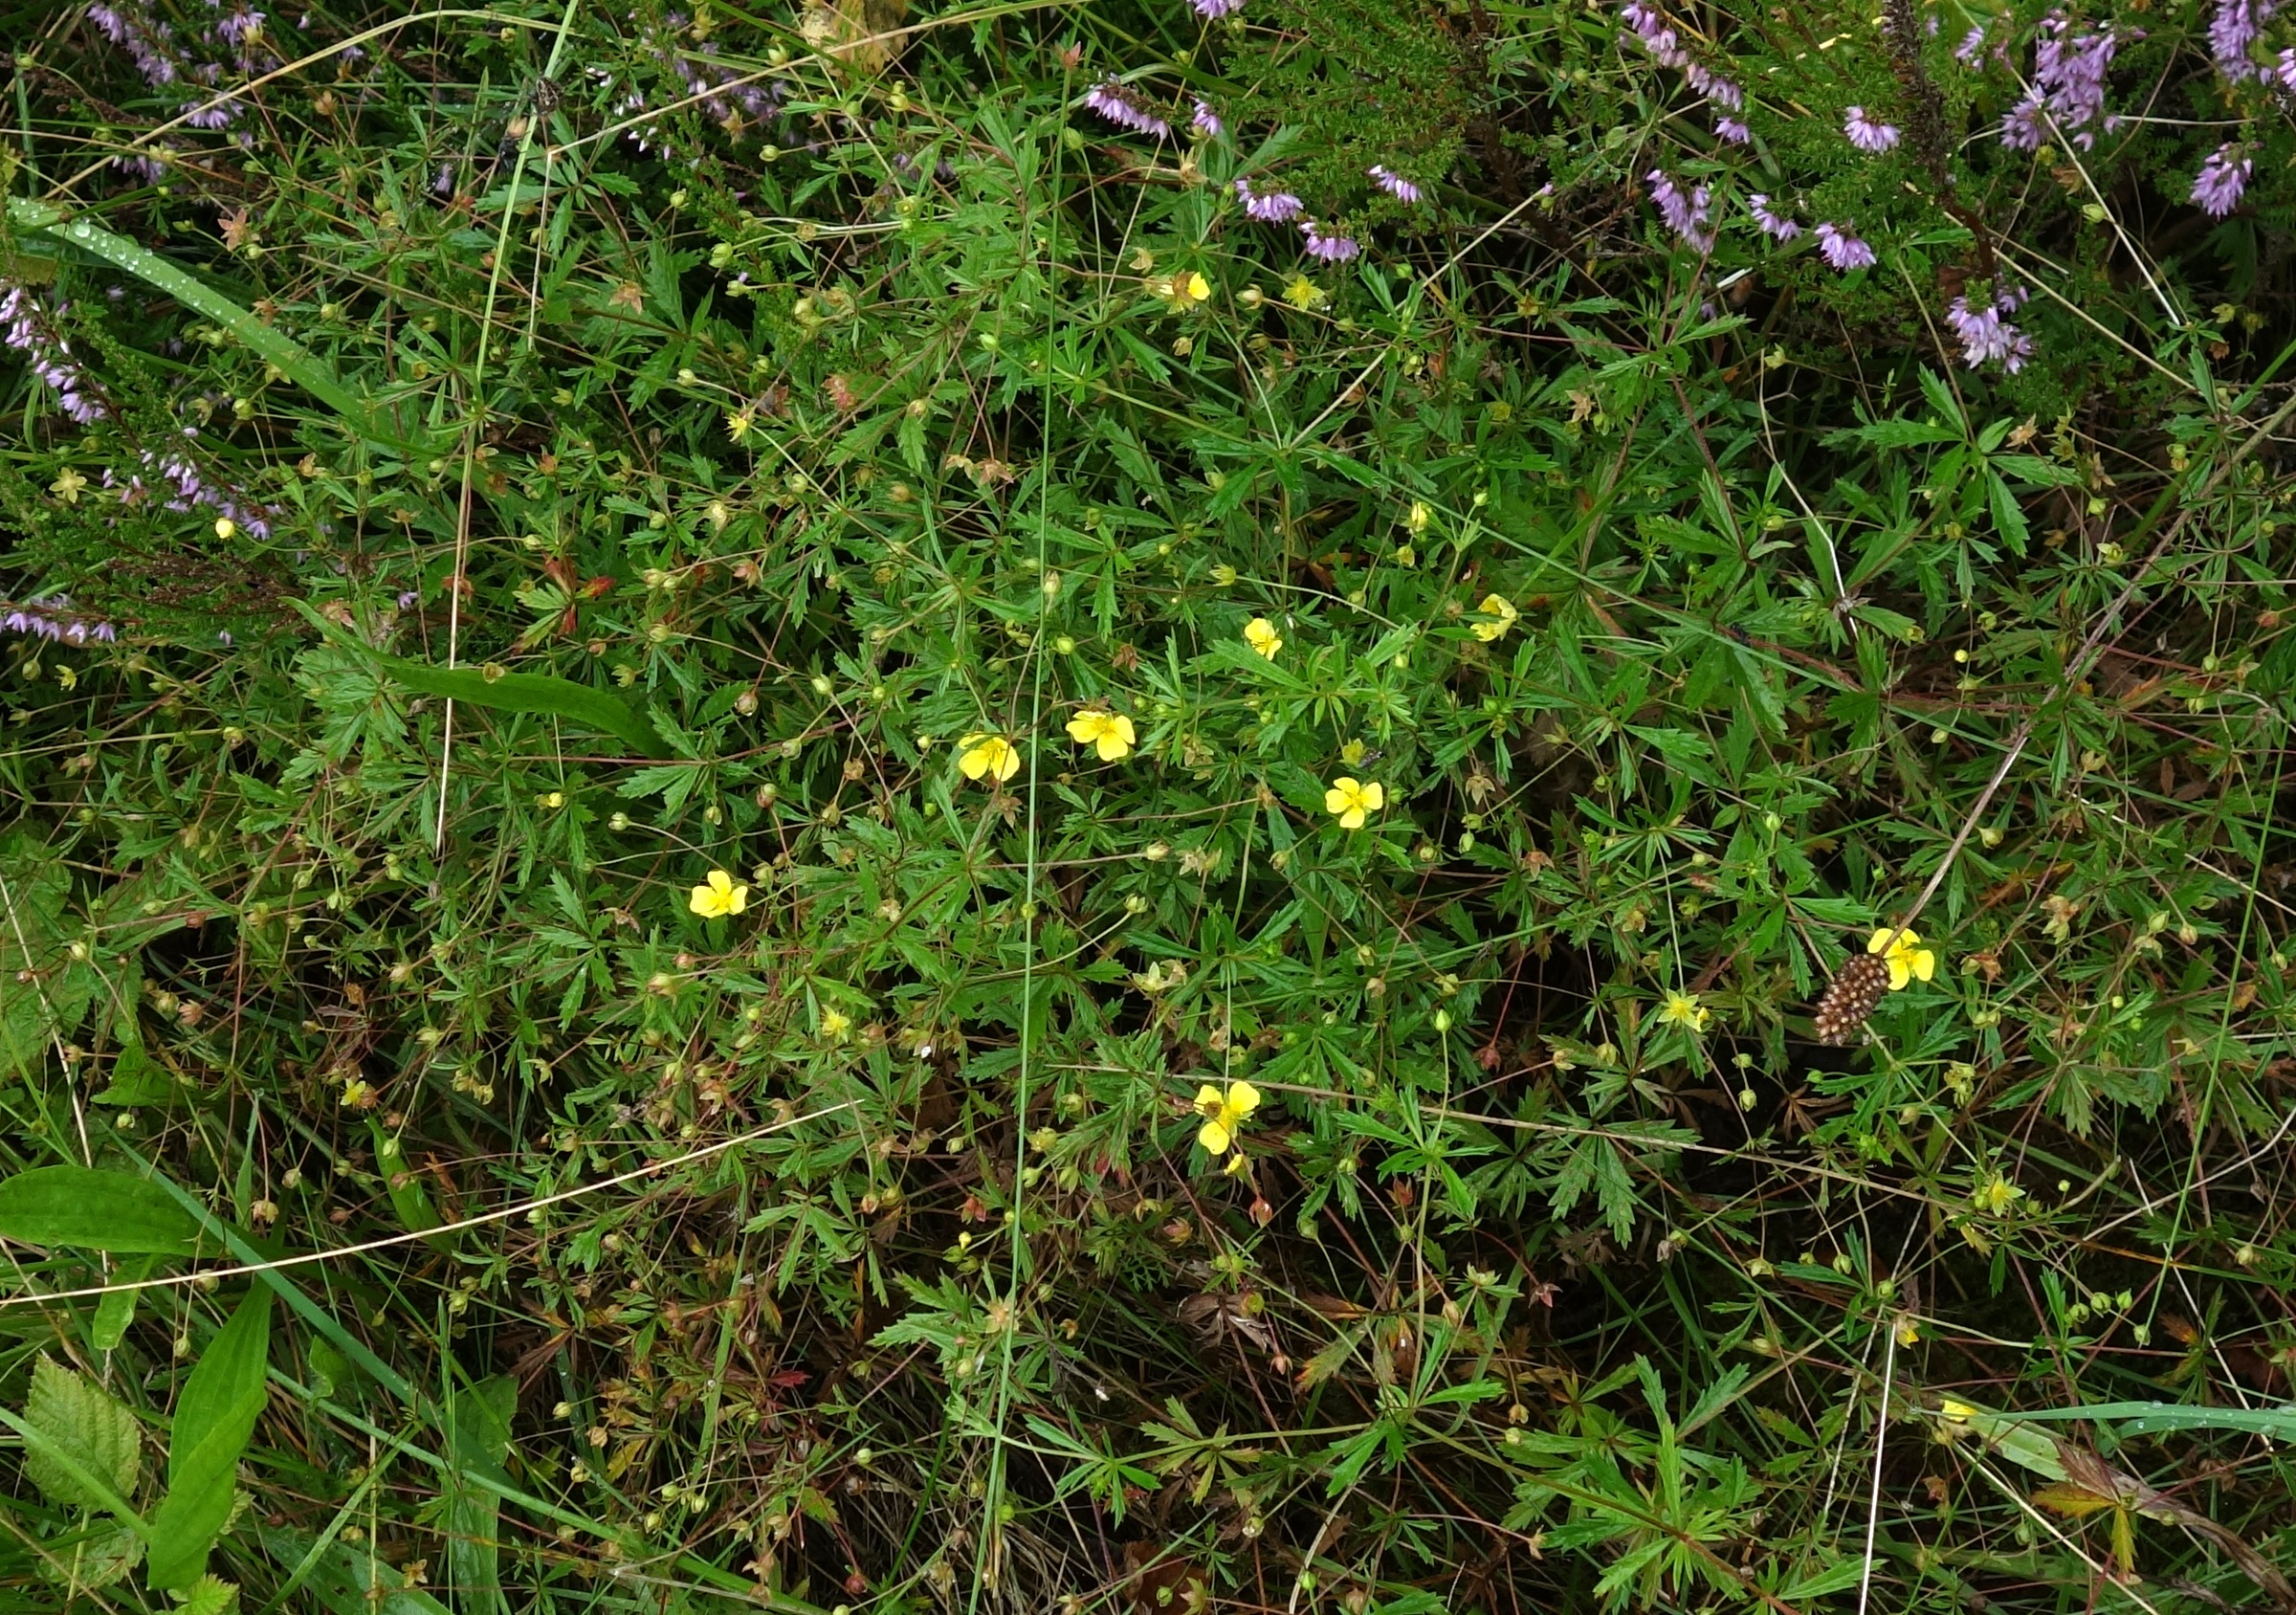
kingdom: Plantae
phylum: Tracheophyta
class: Magnoliopsida
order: Rosales
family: Rosaceae
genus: Potentilla
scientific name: Potentilla erecta
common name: Tormentil
